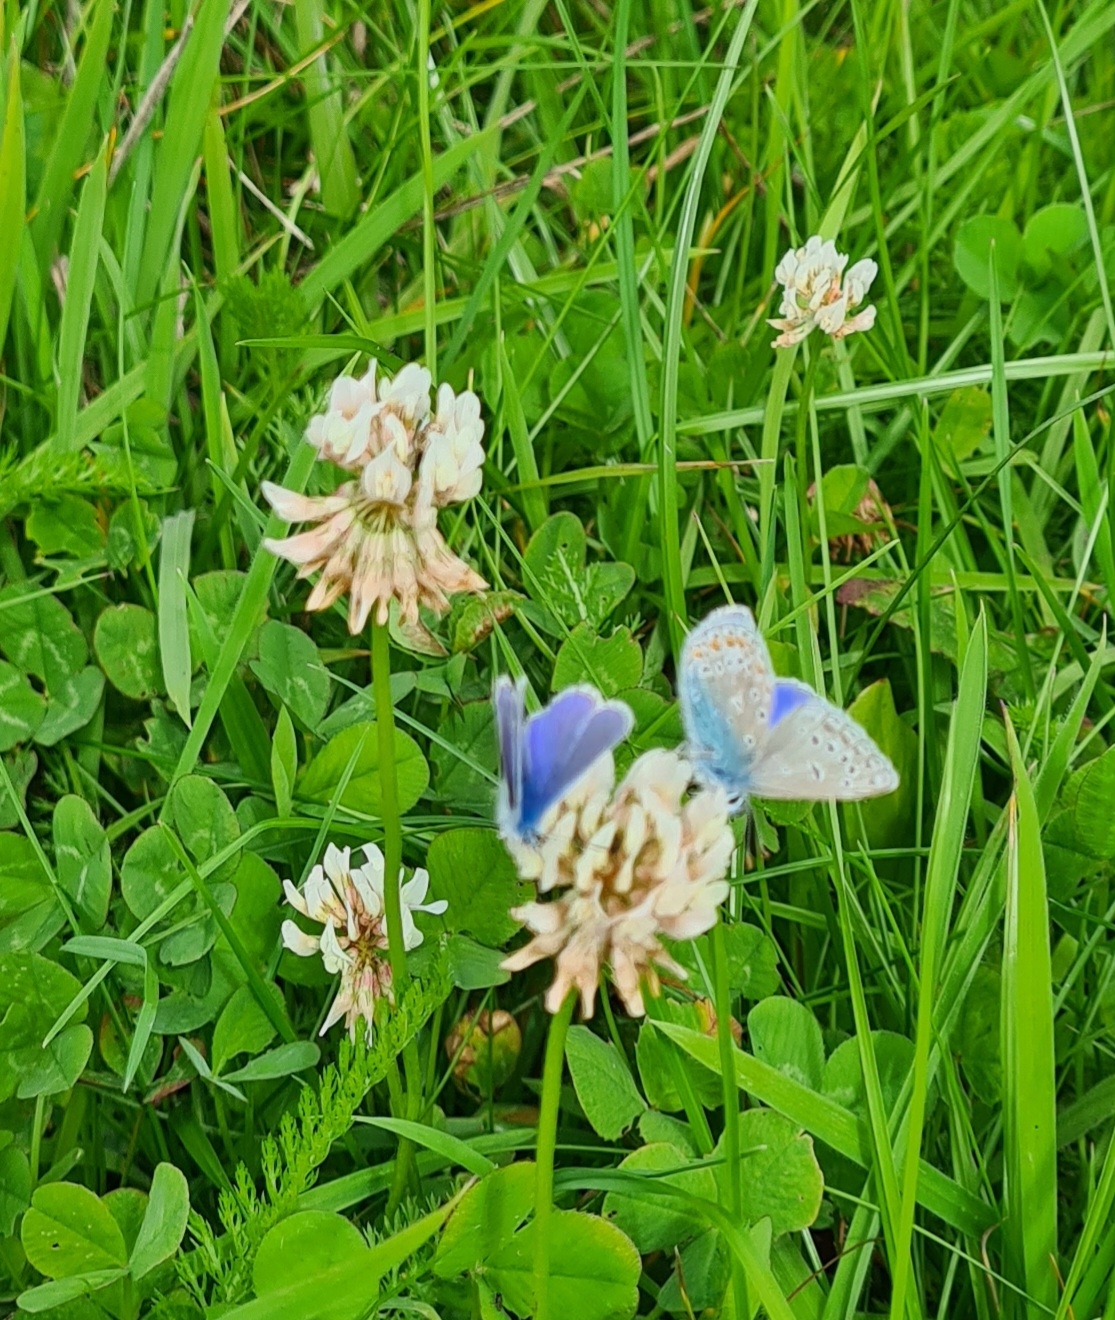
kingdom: Animalia
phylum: Arthropoda
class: Insecta
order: Lepidoptera
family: Lycaenidae
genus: Polyommatus
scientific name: Polyommatus icarus
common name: Almindelig blåfugl
